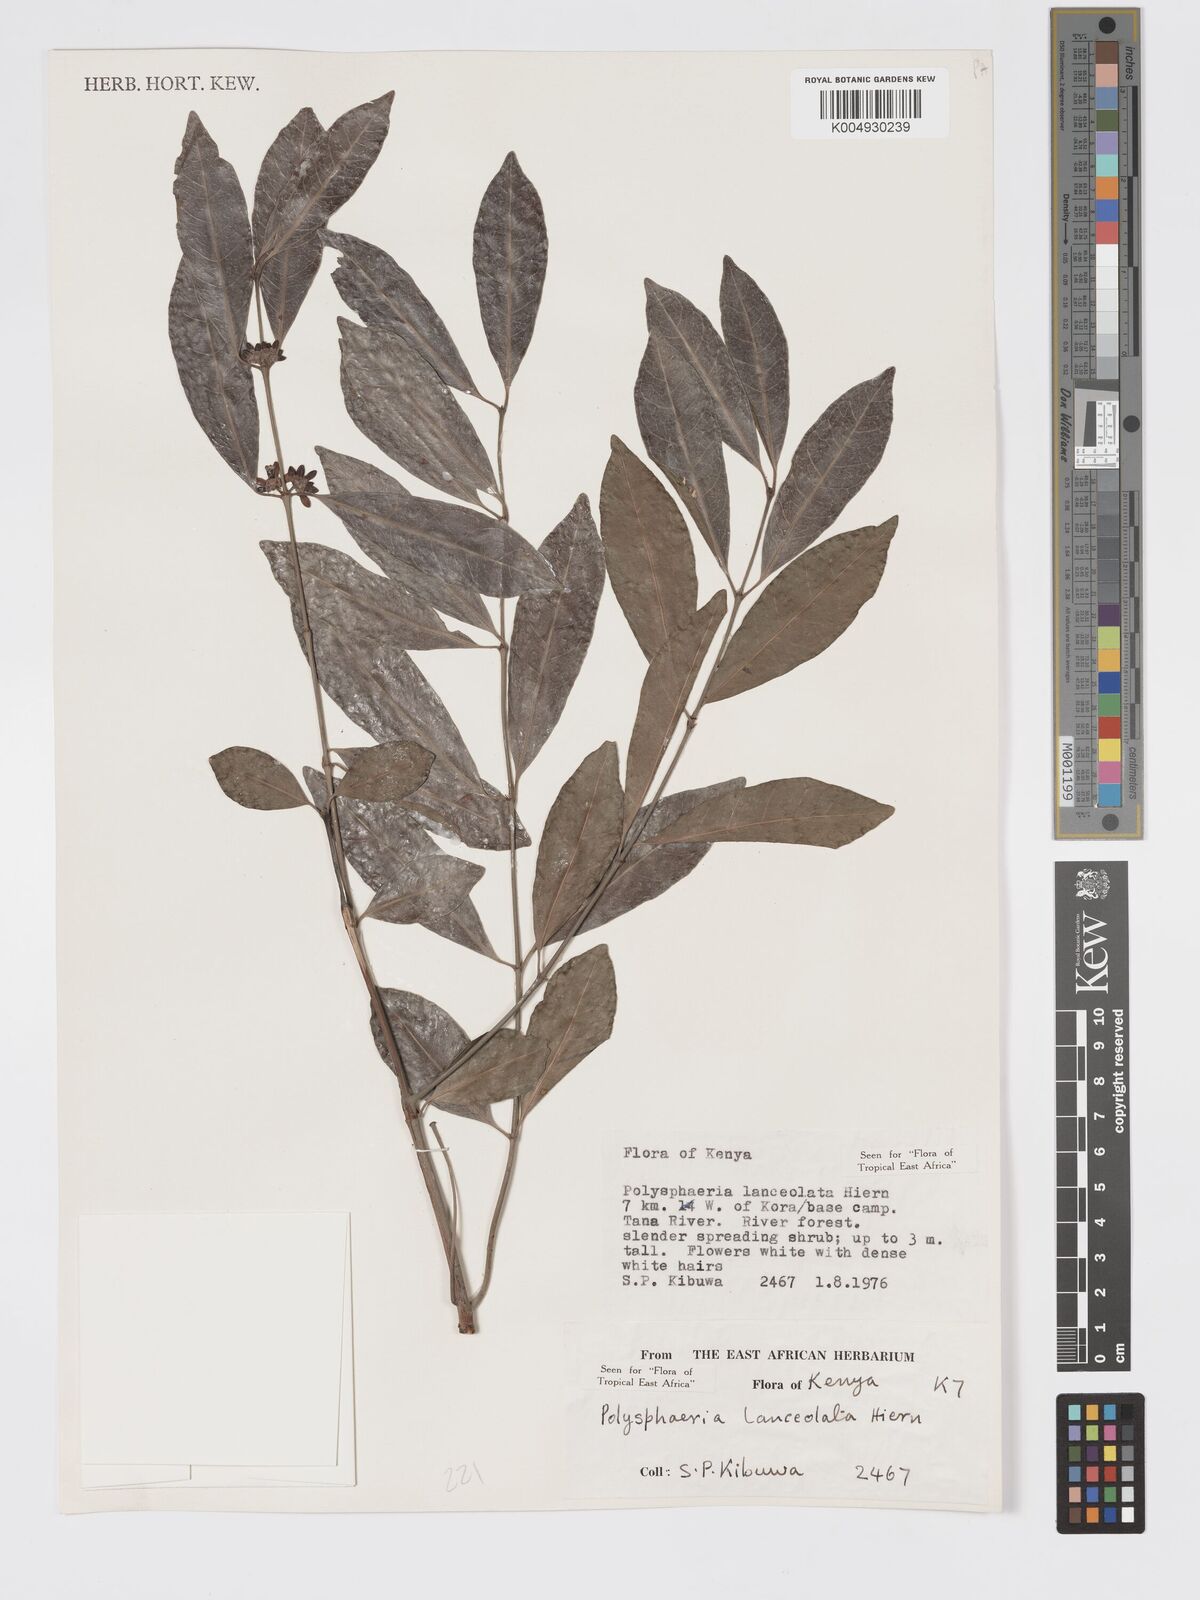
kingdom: Plantae
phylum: Tracheophyta
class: Magnoliopsida
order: Gentianales
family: Rubiaceae
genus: Polysphaeria
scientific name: Polysphaeria lanceolata
